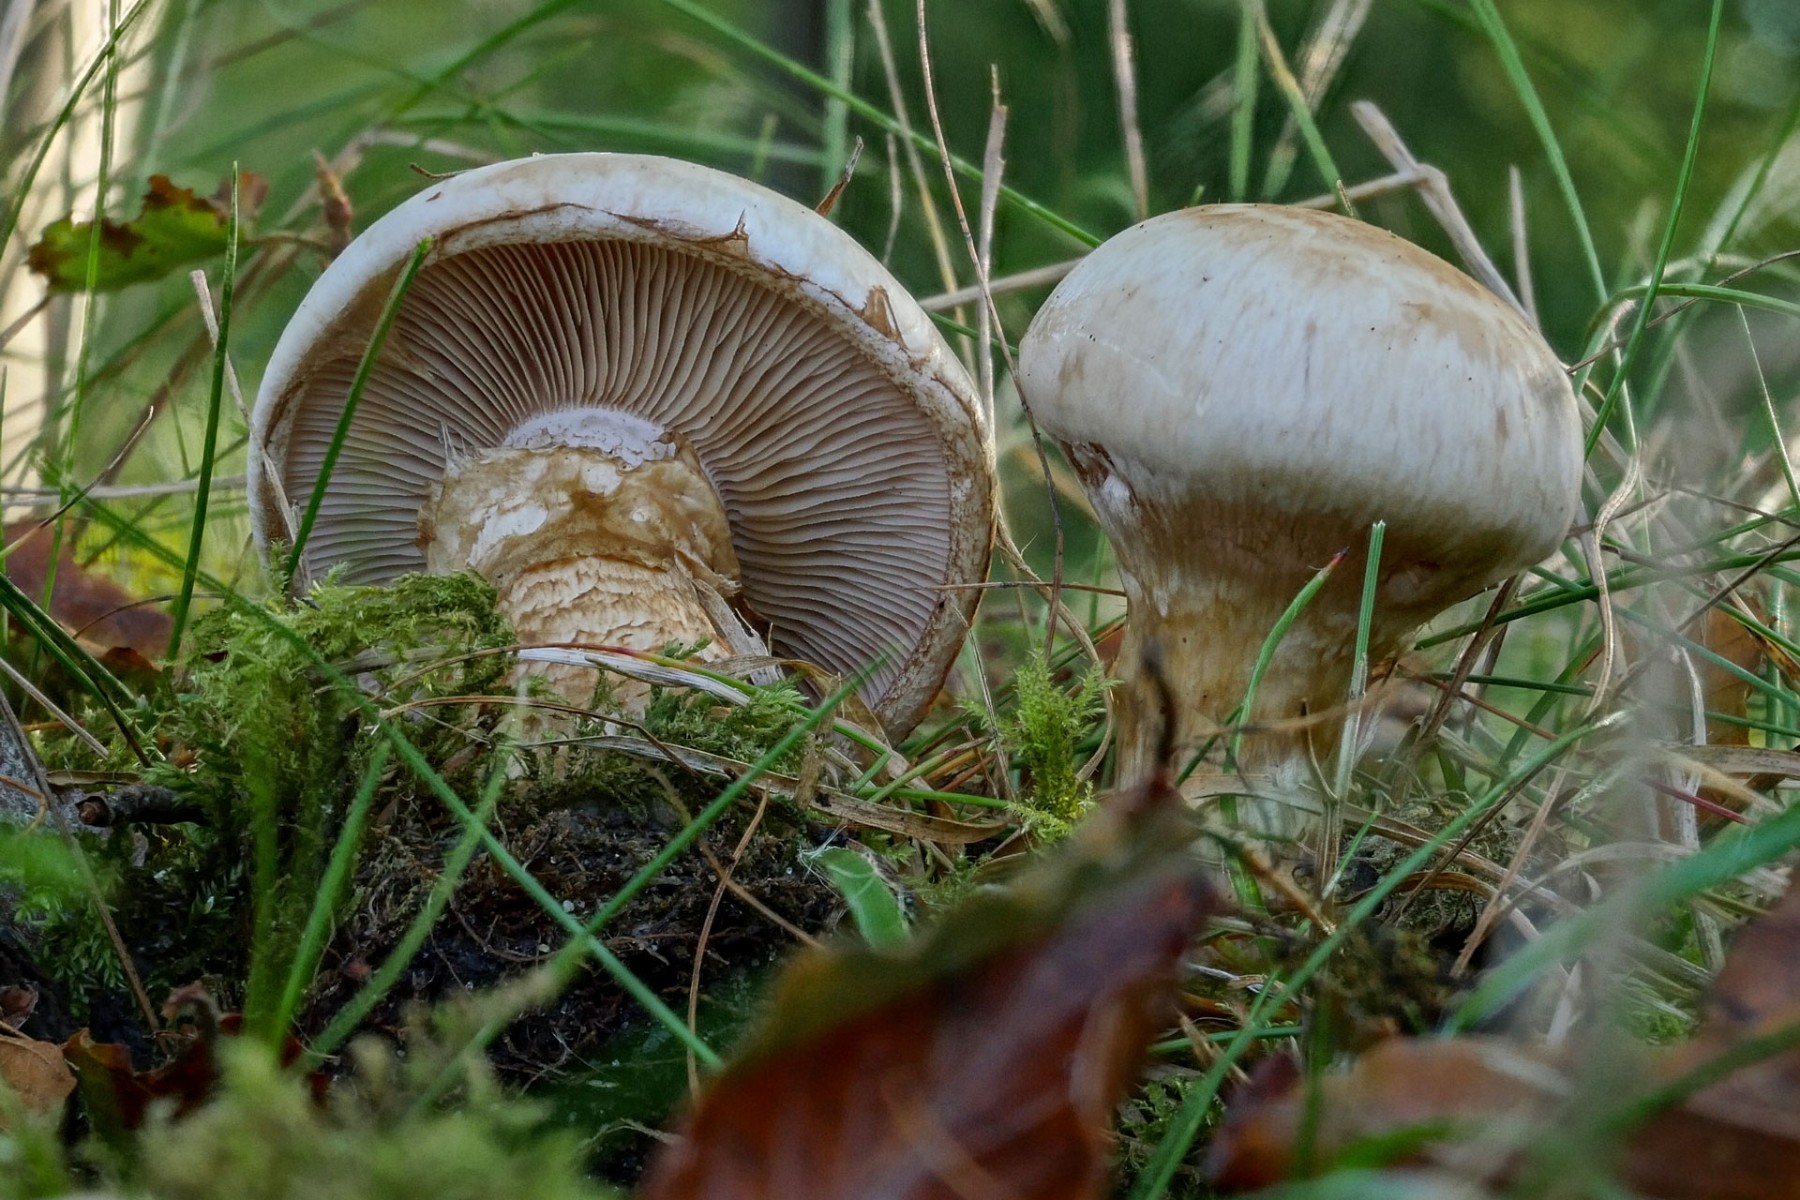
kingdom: Fungi
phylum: Basidiomycota
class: Agaricomycetes
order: Agaricales
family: Hymenogastraceae
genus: Hebeloma
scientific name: Hebeloma radicosum
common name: pælerods-tåreblad
